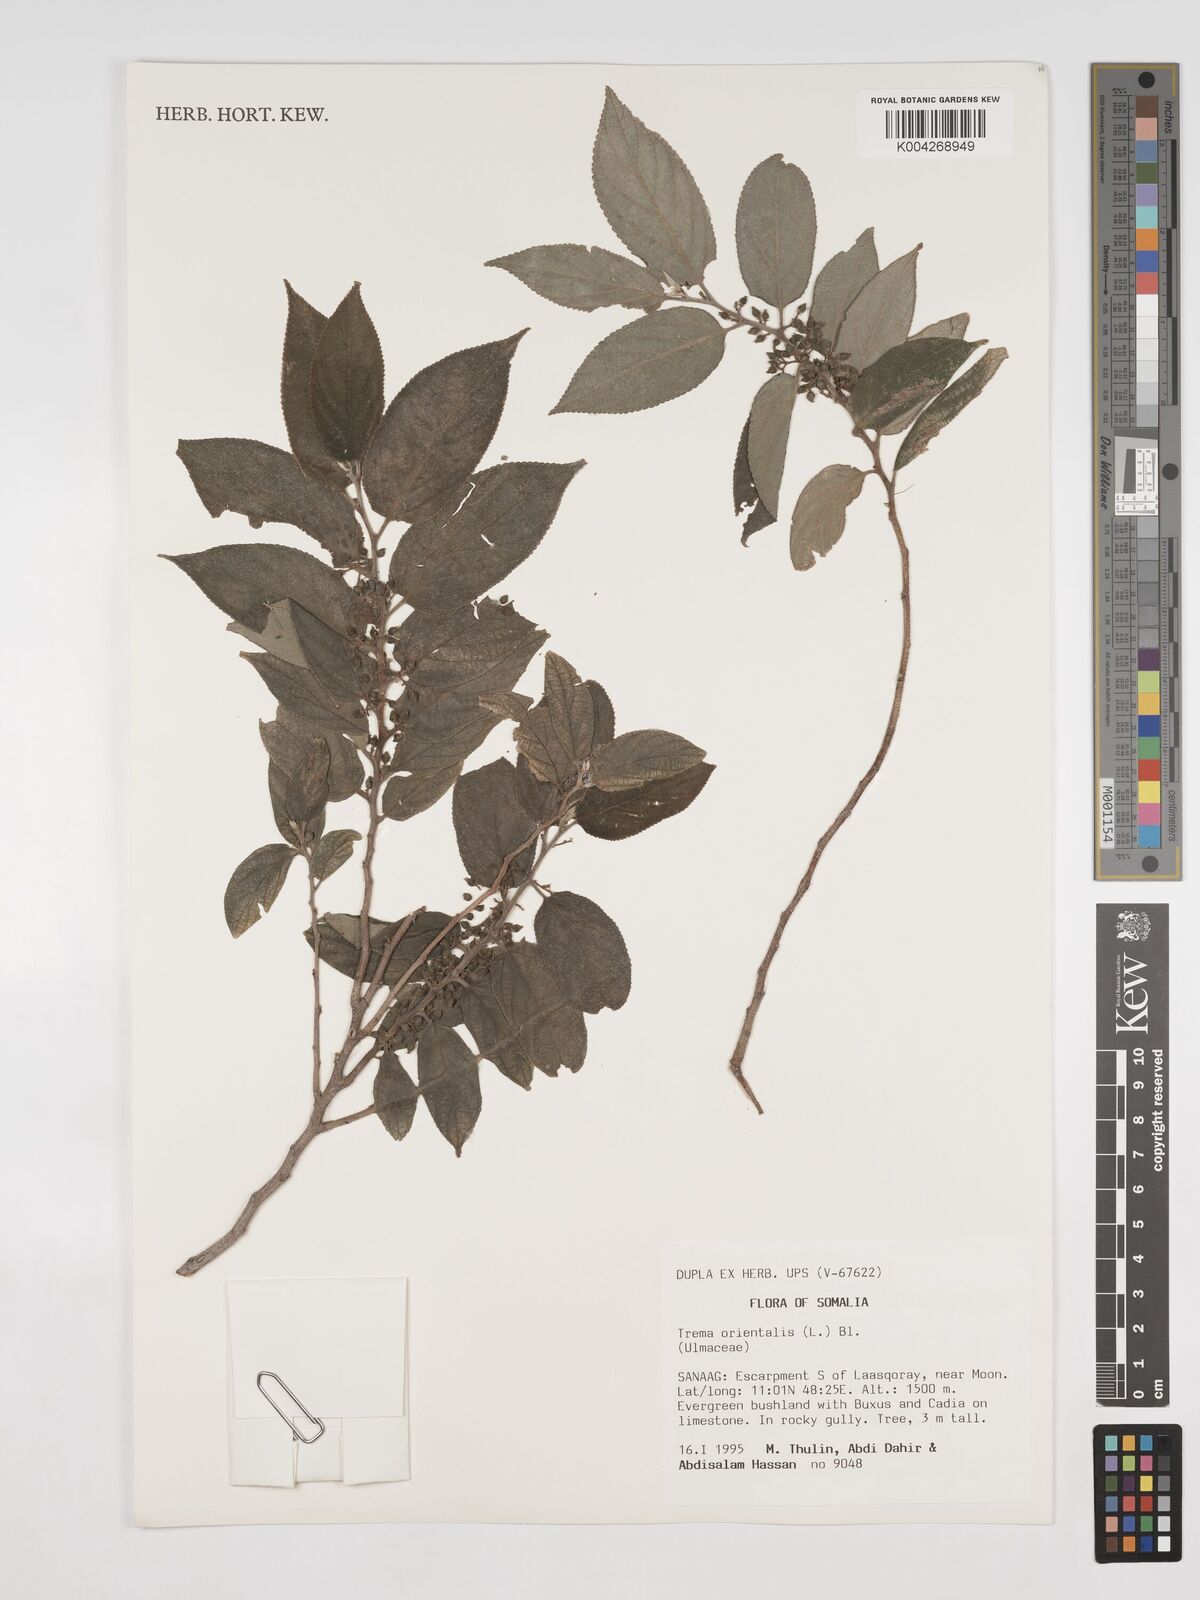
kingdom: Plantae
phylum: Tracheophyta
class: Magnoliopsida
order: Rosales
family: Cannabaceae
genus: Trema
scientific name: Trema orientale
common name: Indian charcoal tree
